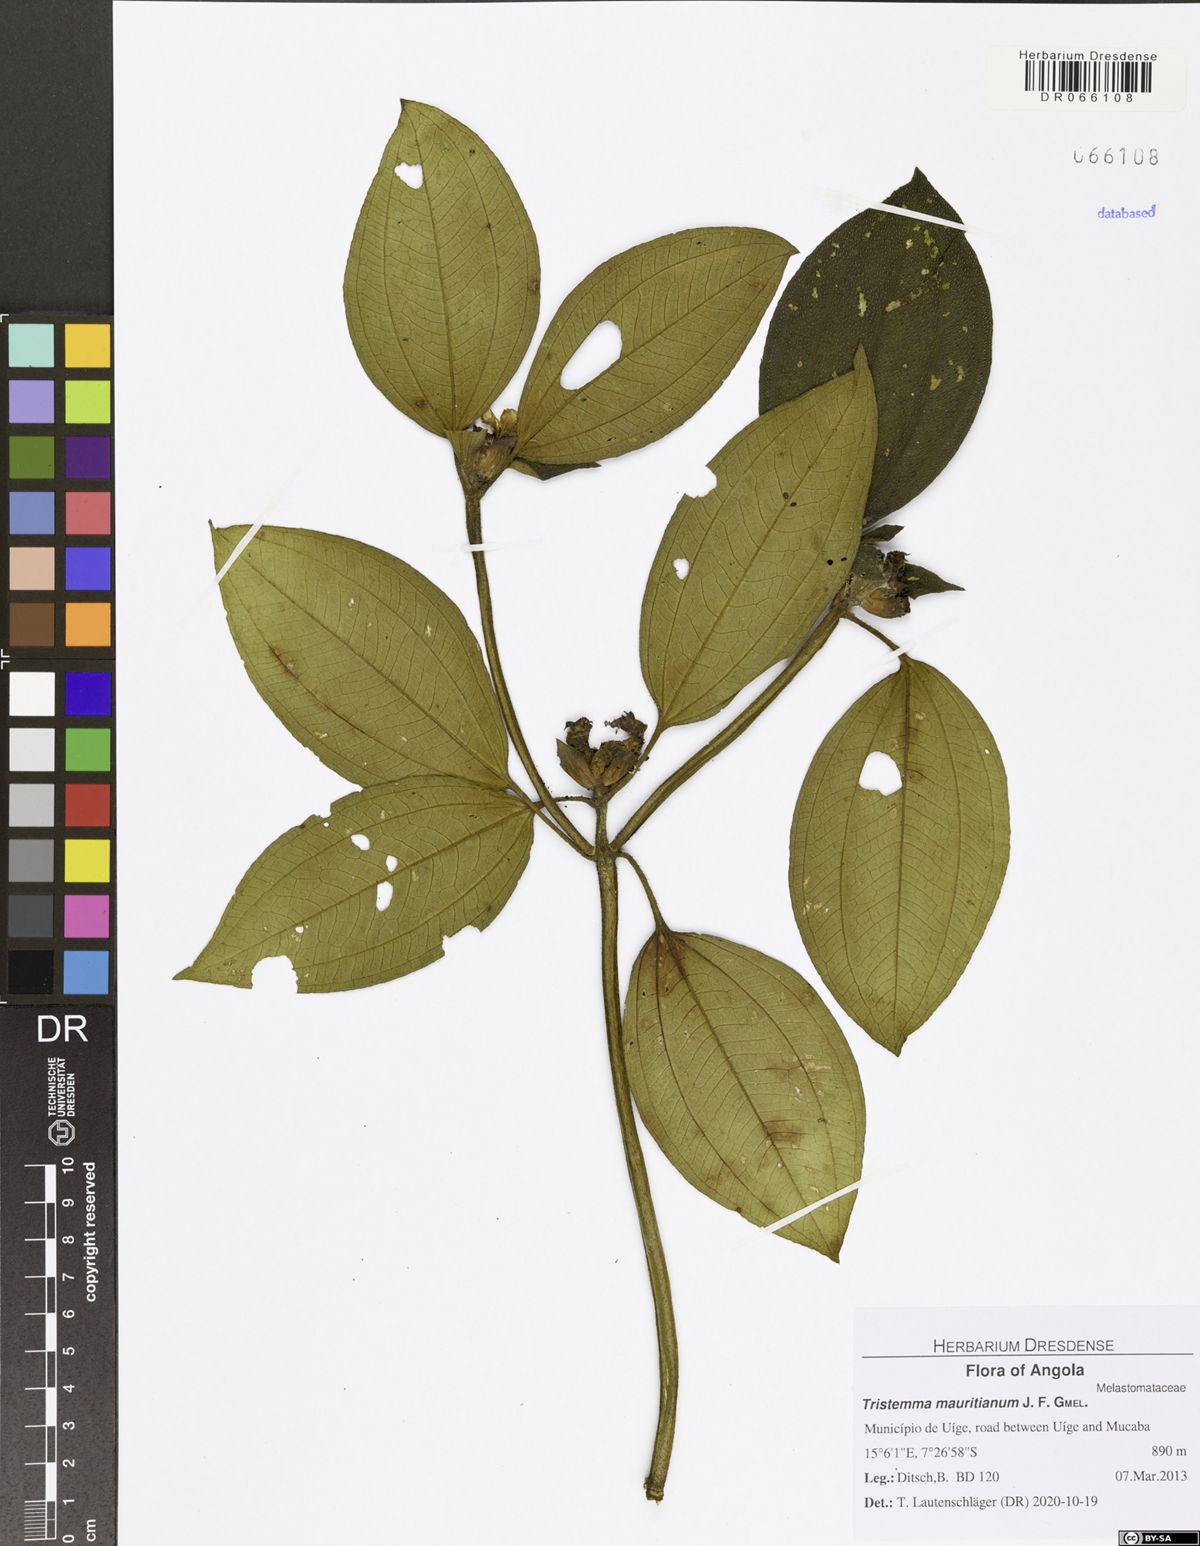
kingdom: Plantae
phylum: Tracheophyta
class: Magnoliopsida
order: Myrtales
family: Melastomataceae
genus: Tristemma
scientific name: Tristemma mauritianum
